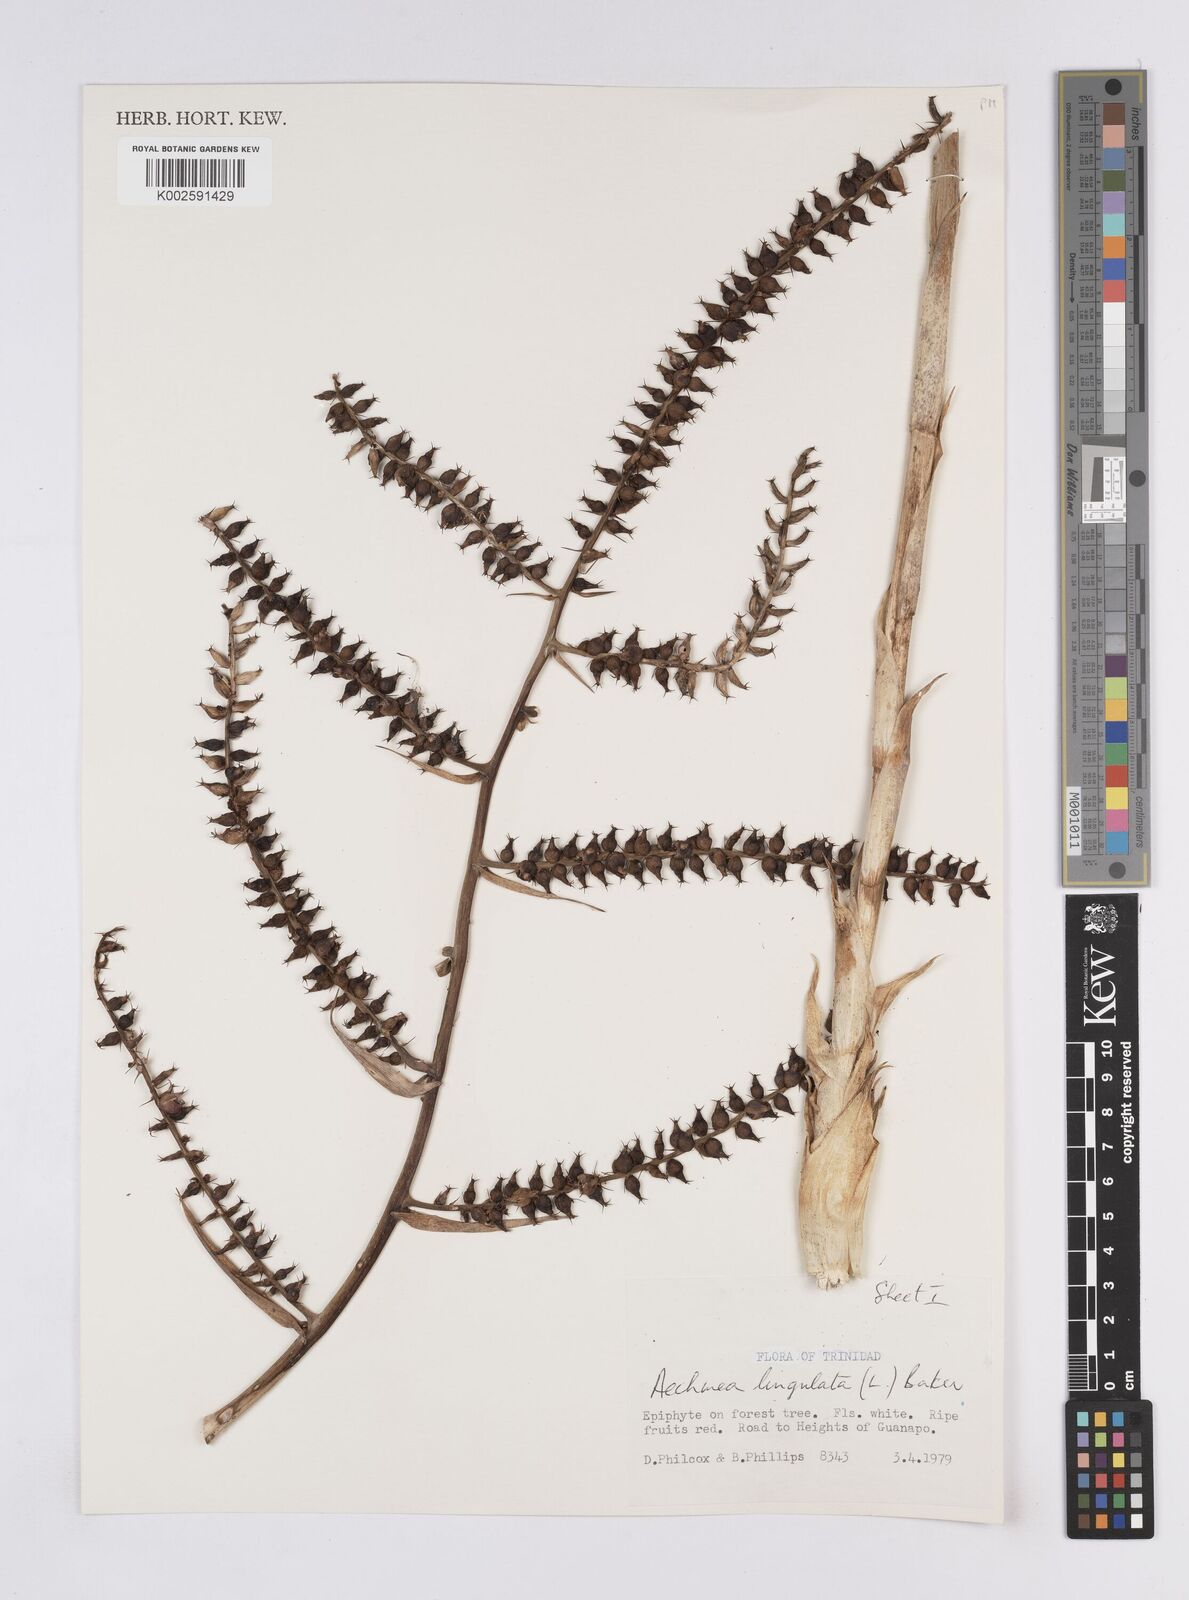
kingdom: Plantae
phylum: Tracheophyta
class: Liliopsida
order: Poales
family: Bromeliaceae
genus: Wittmackia
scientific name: Wittmackia lingulata
